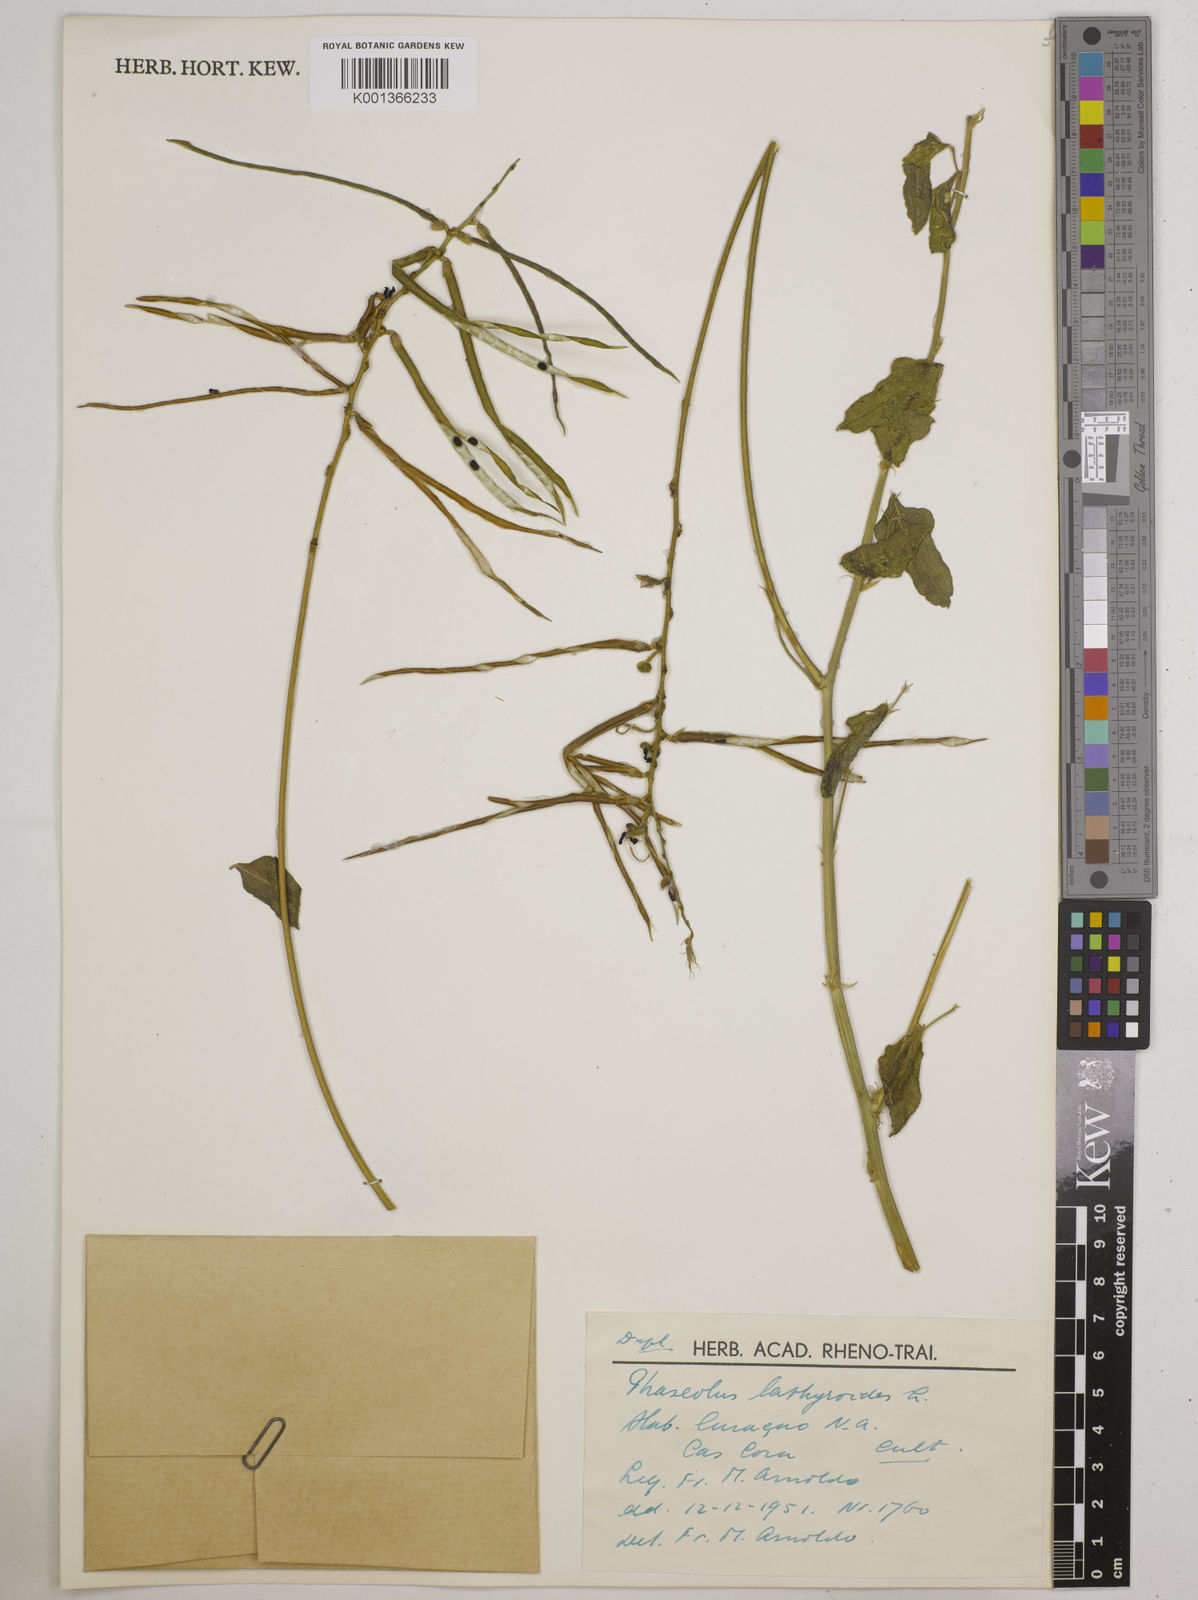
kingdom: Plantae
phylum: Tracheophyta
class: Magnoliopsida
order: Fabales
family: Fabaceae
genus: Macroptilium
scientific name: Macroptilium lathyroides
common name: Wild bushbean
